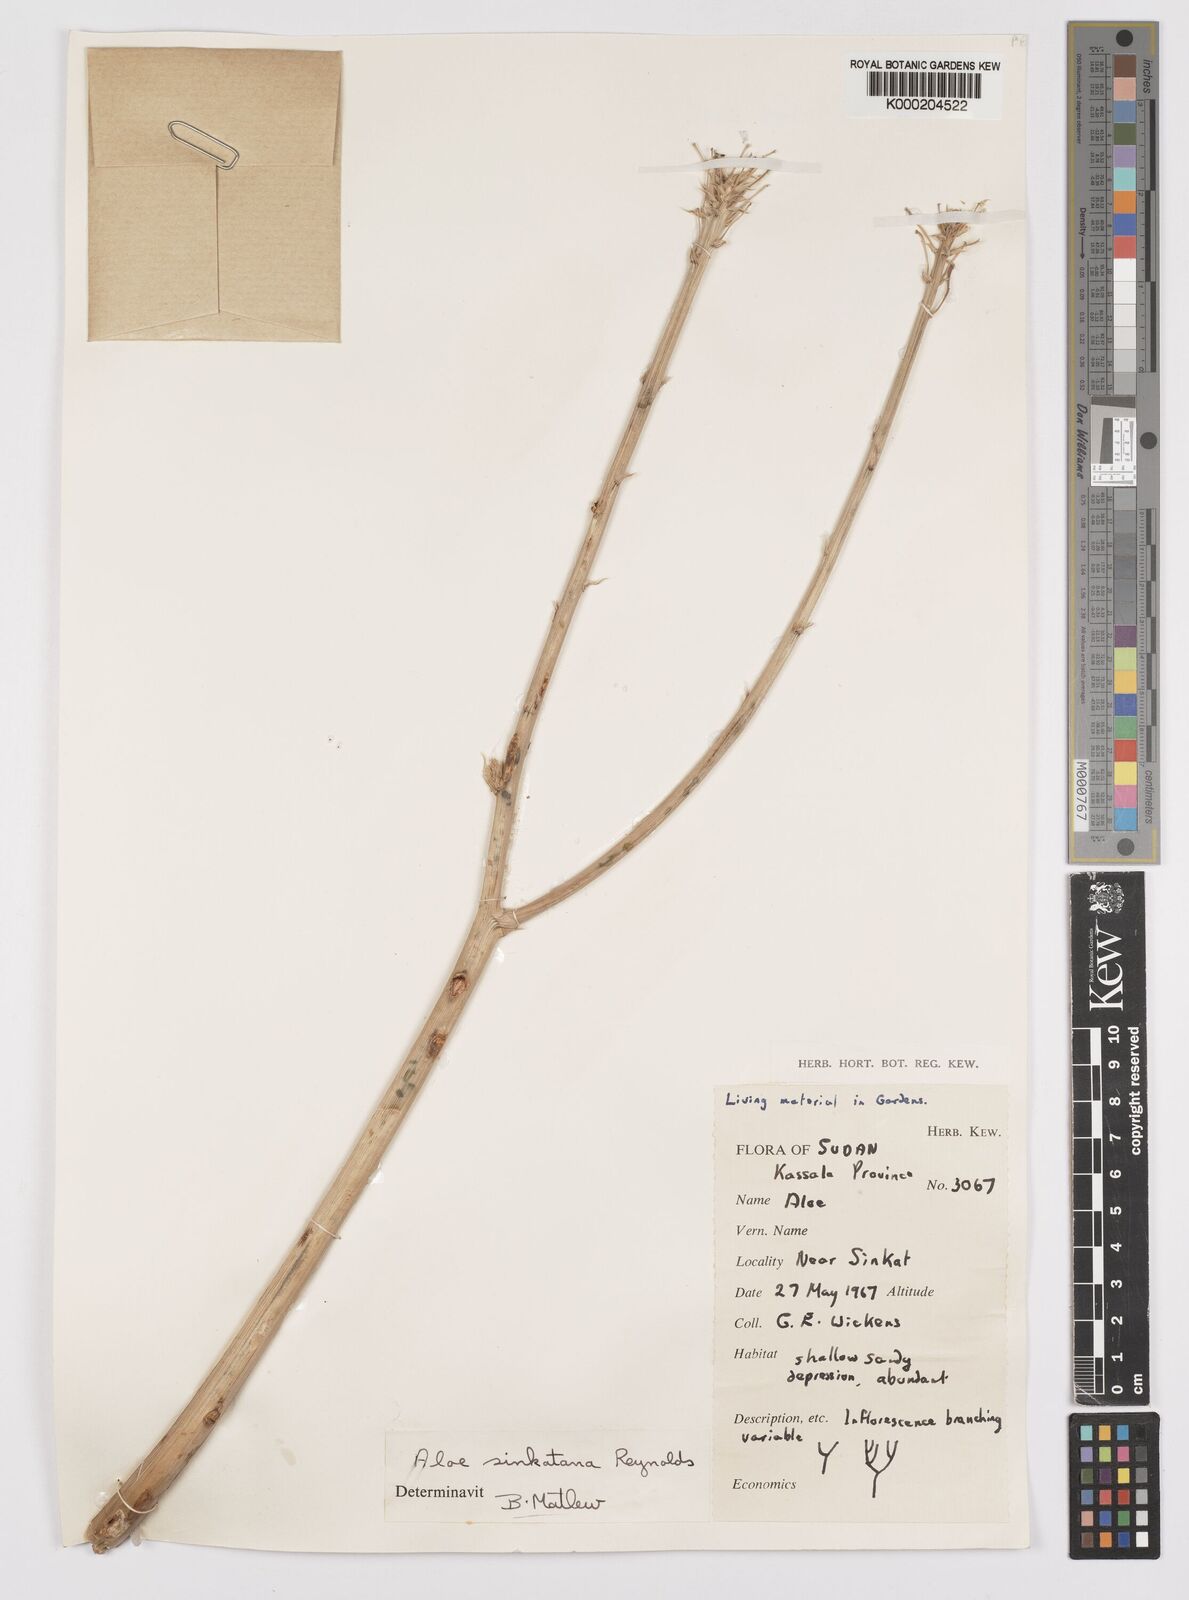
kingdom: Plantae
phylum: Tracheophyta
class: Liliopsida
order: Asparagales
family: Asphodelaceae
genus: Aloe
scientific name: Aloe sinkatana
